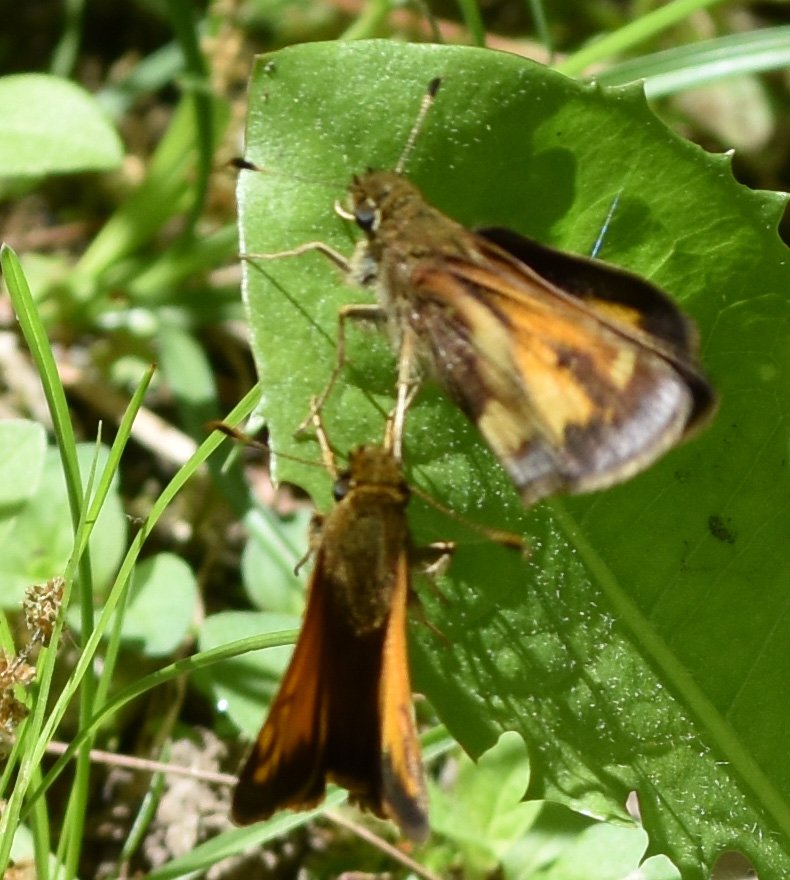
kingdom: Animalia
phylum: Arthropoda
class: Insecta
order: Lepidoptera
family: Hesperiidae
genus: Lon
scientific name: Lon hobomok
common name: Hobomok Skipper
